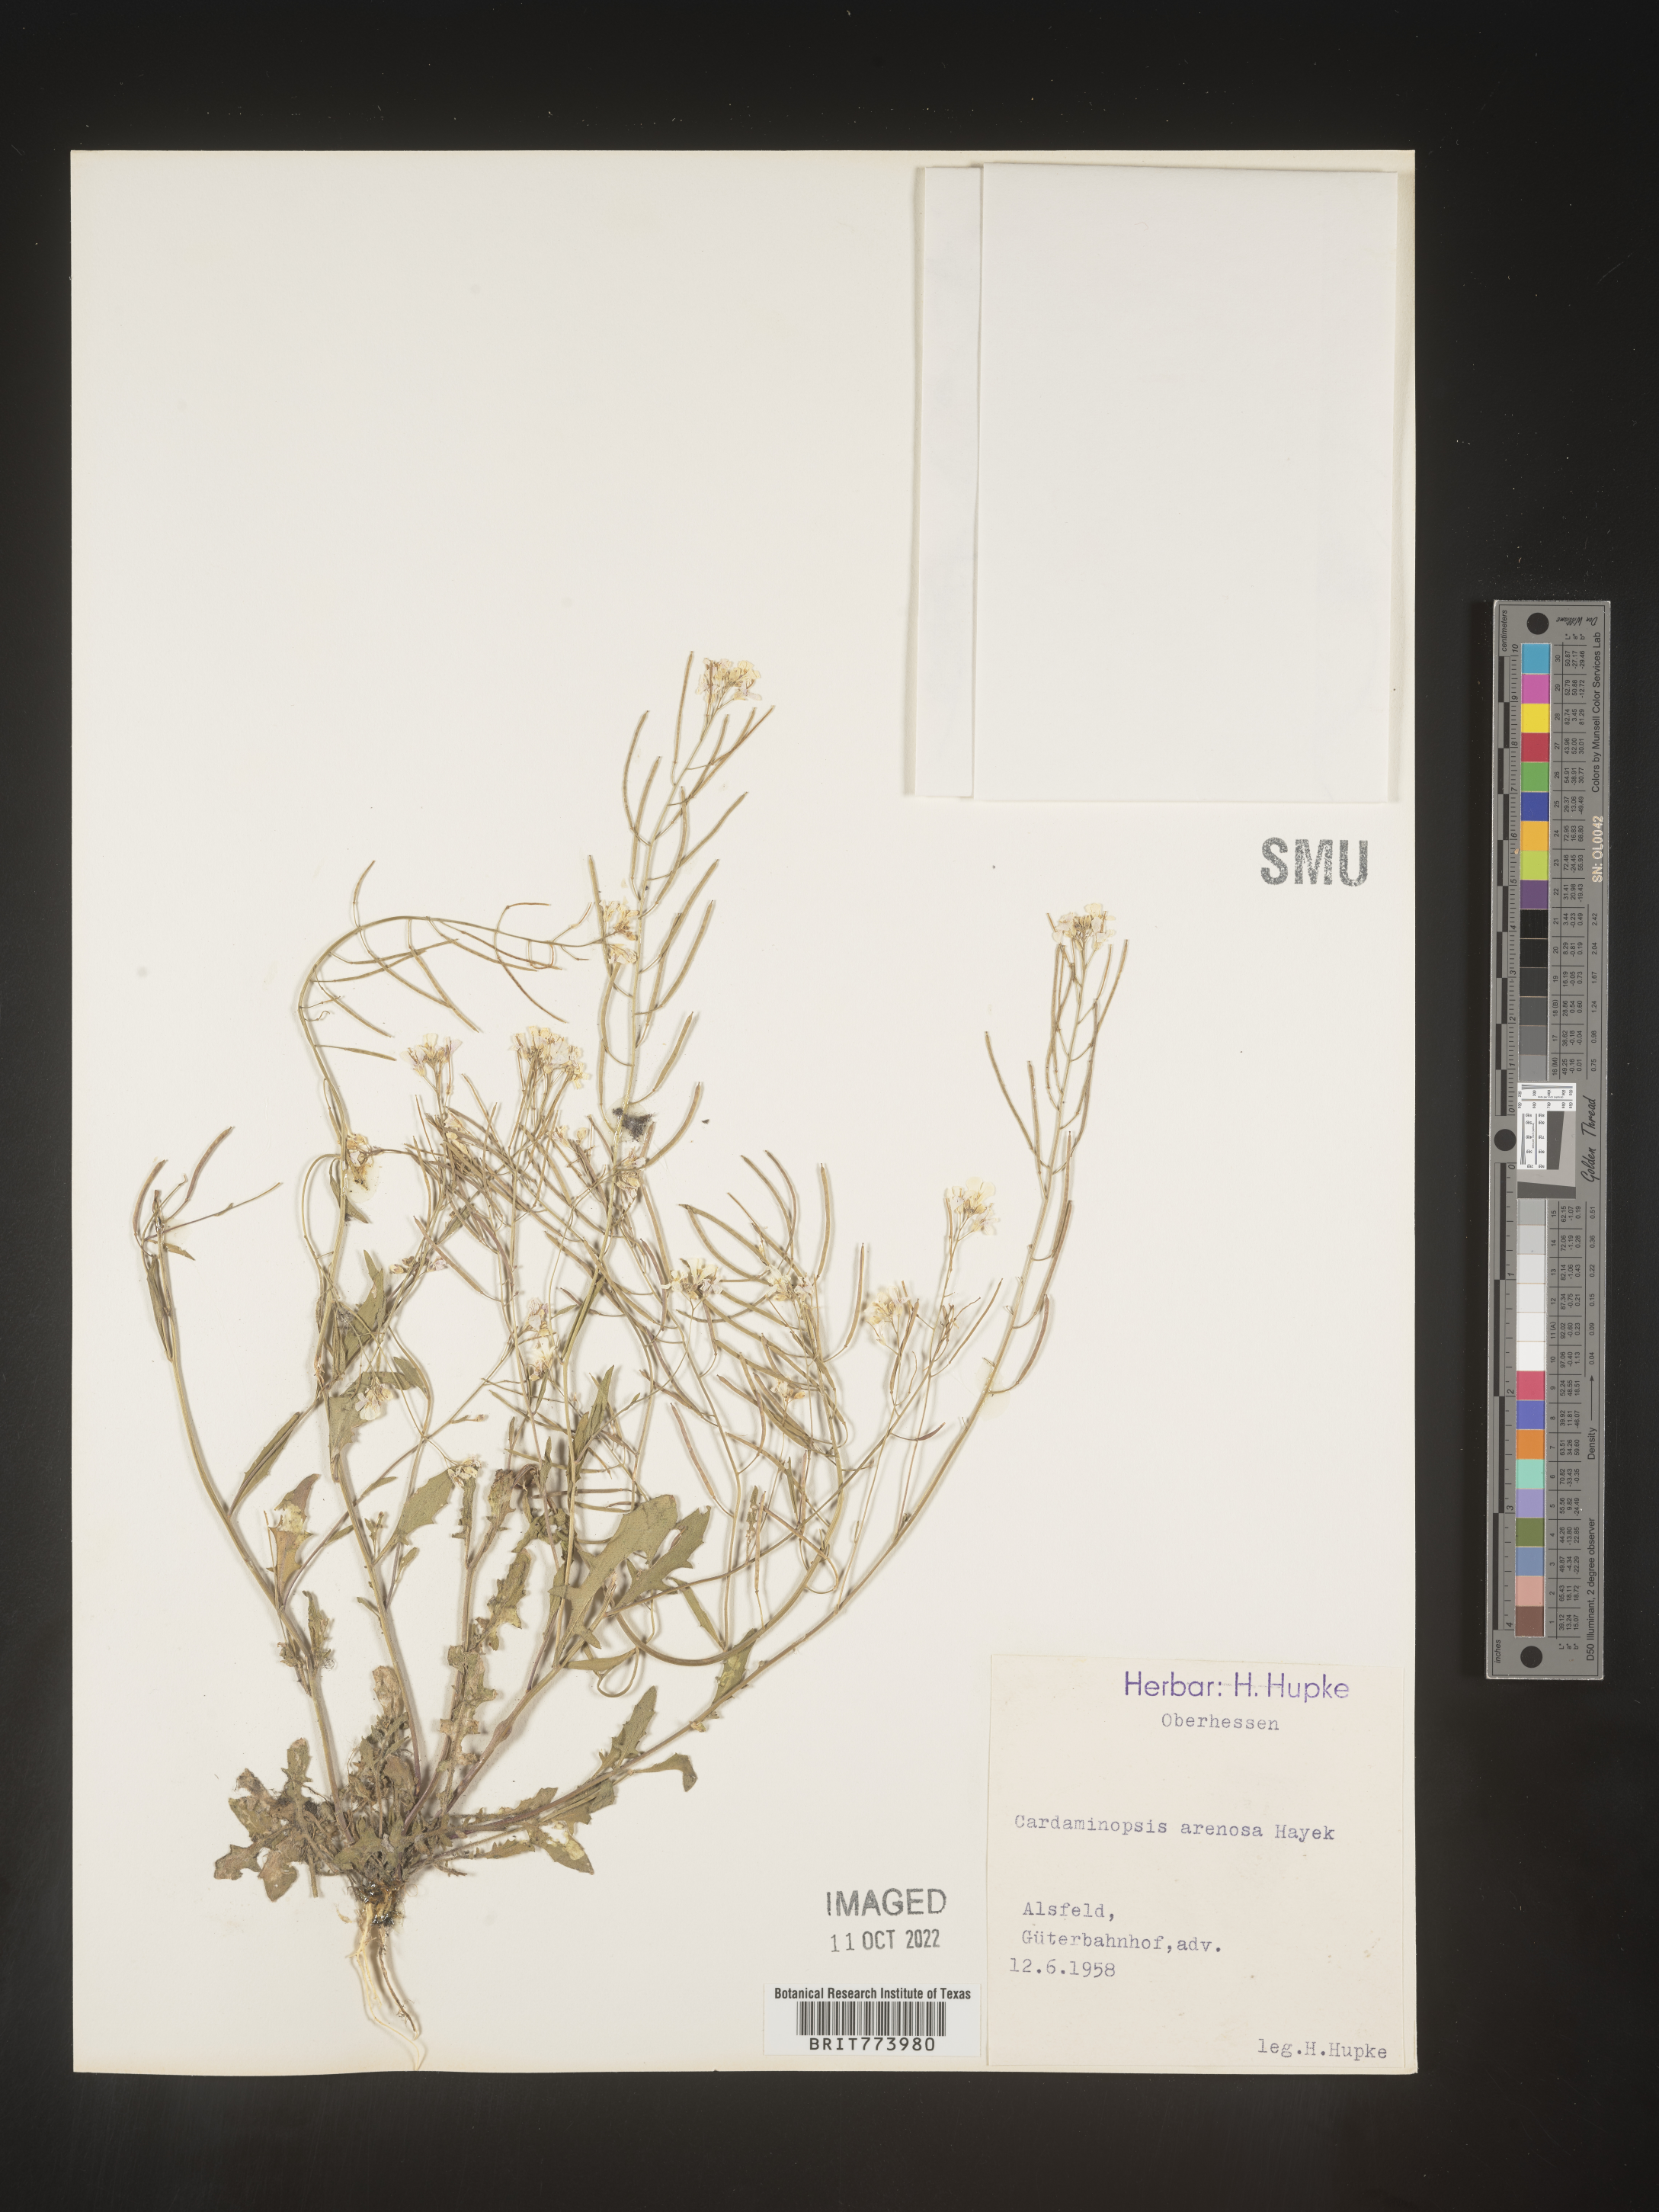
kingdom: Plantae
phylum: Tracheophyta
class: Magnoliopsida
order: Brassicales
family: Brassicaceae
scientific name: Brassicaceae
